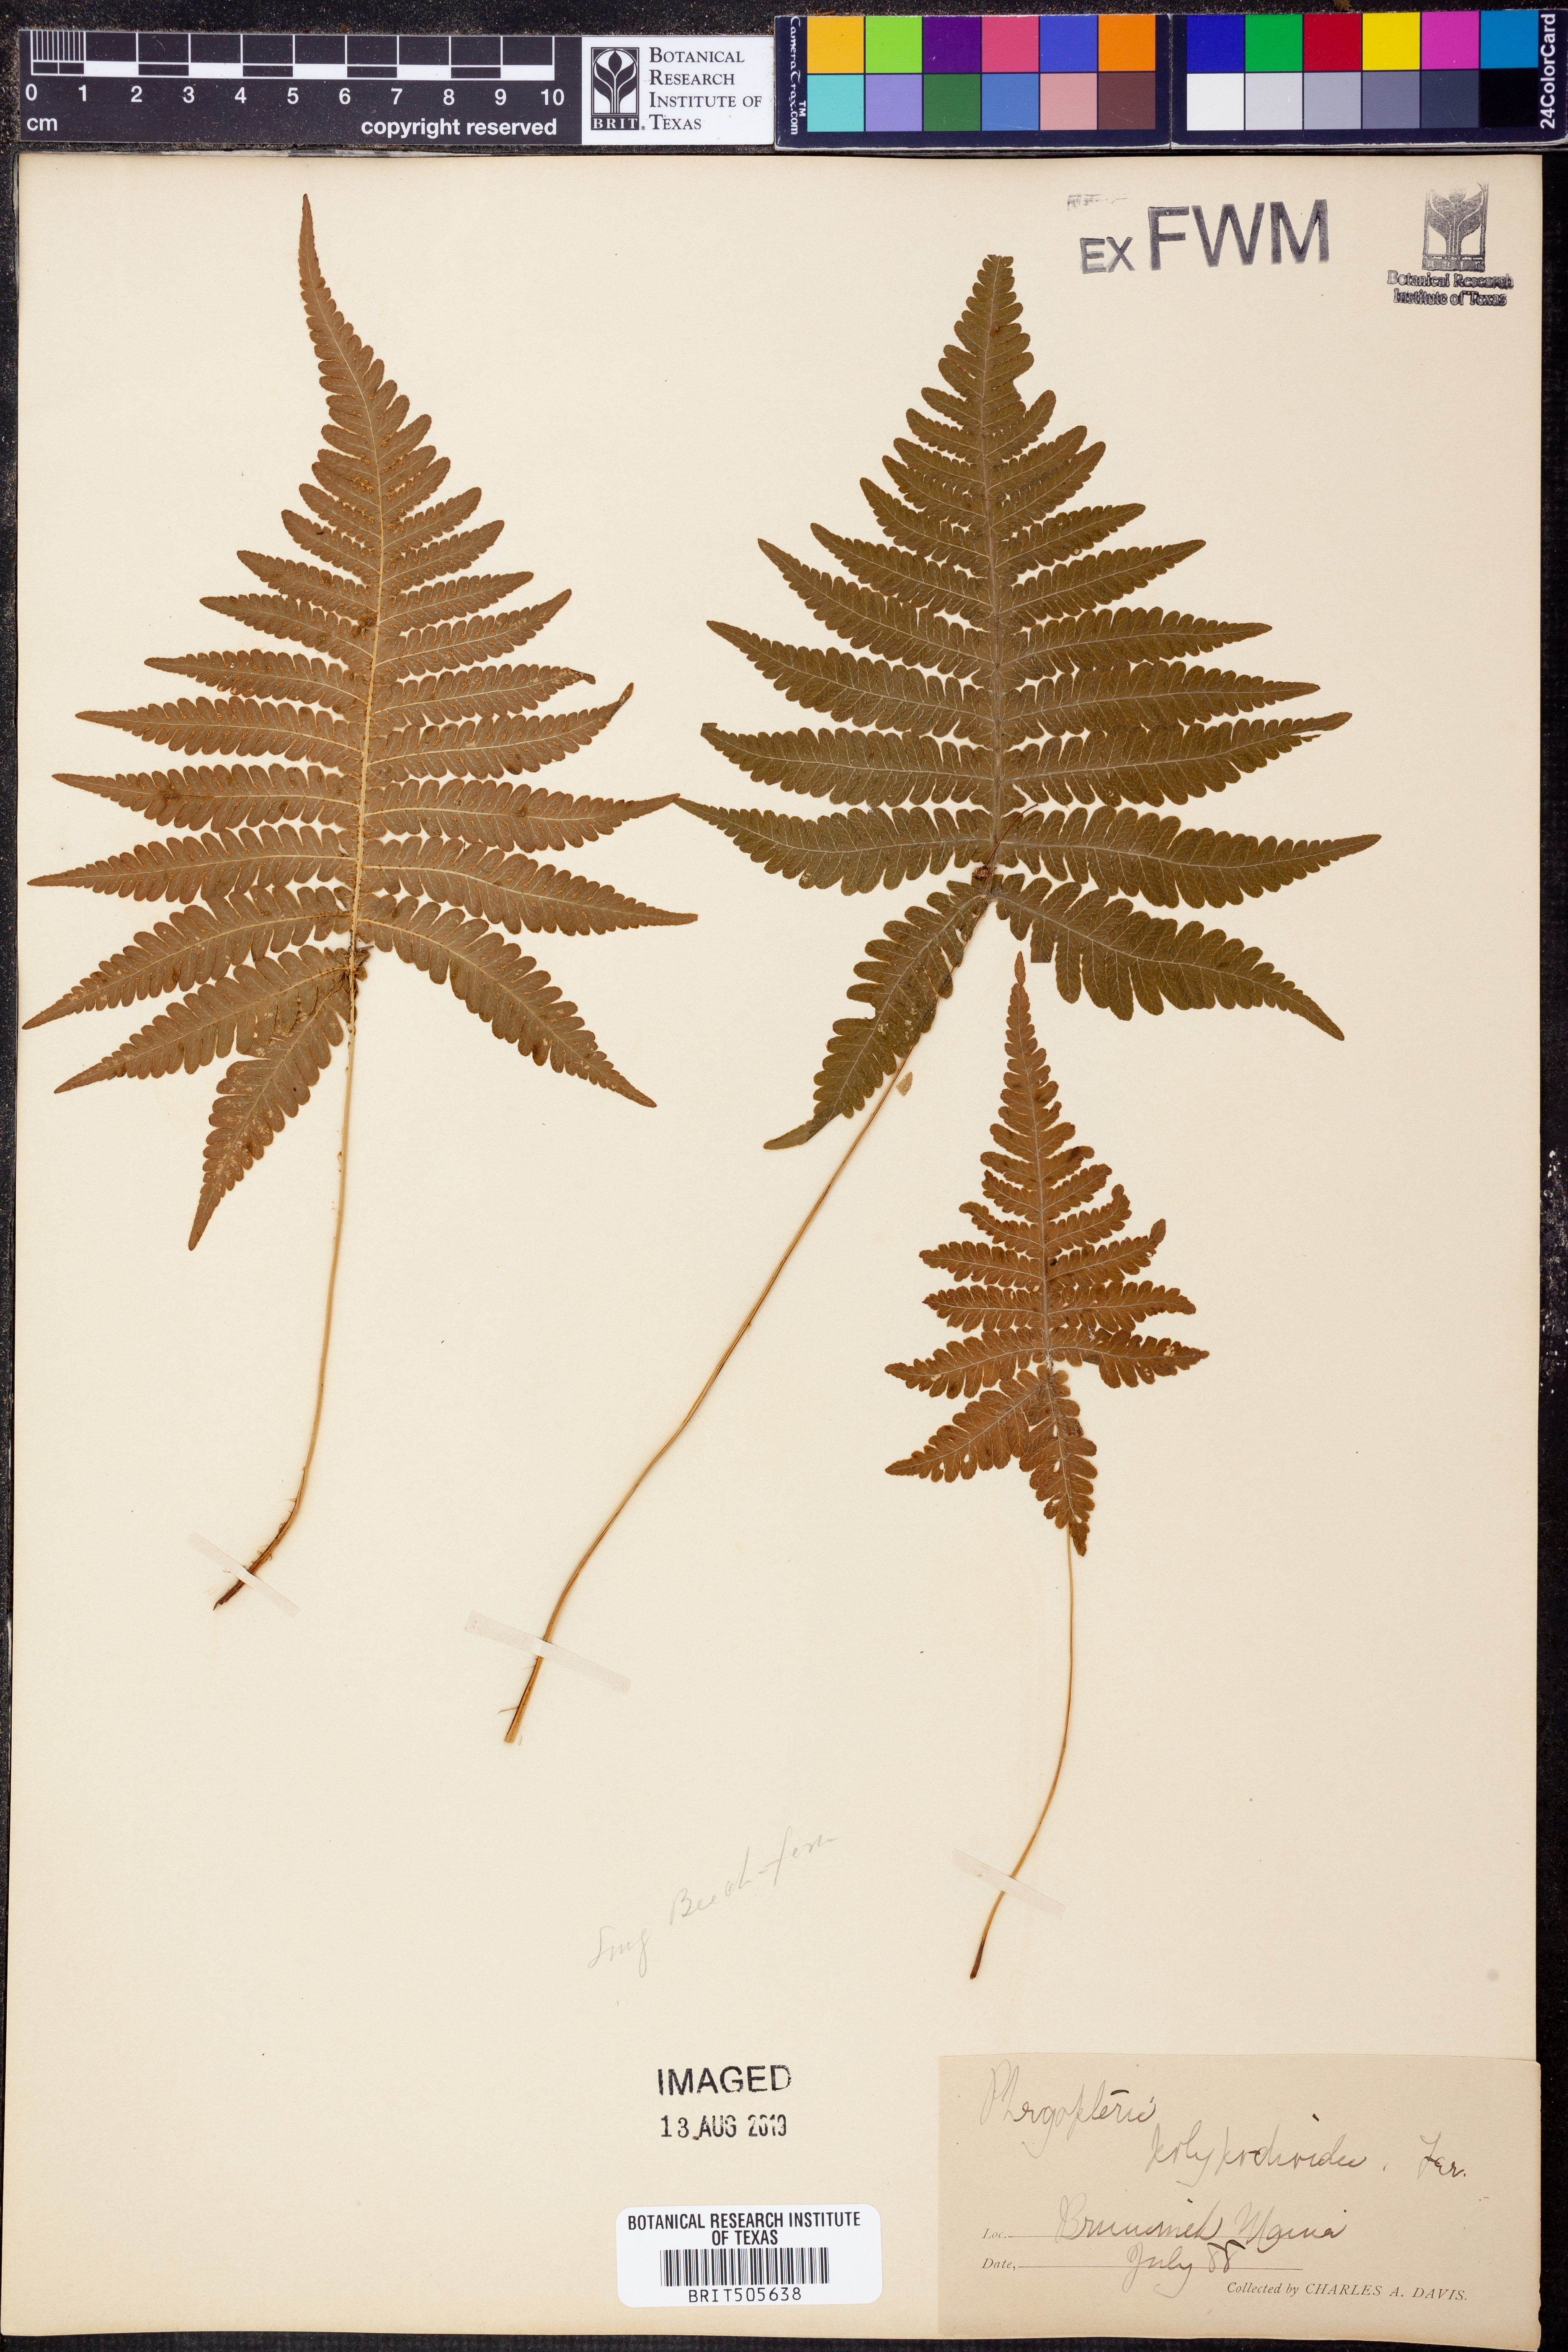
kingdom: Plantae
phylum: Tracheophyta
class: Polypodiopsida
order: Polypodiales
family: Thelypteridaceae
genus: Phegopteris
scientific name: Phegopteris connectilis
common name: Beech fern
